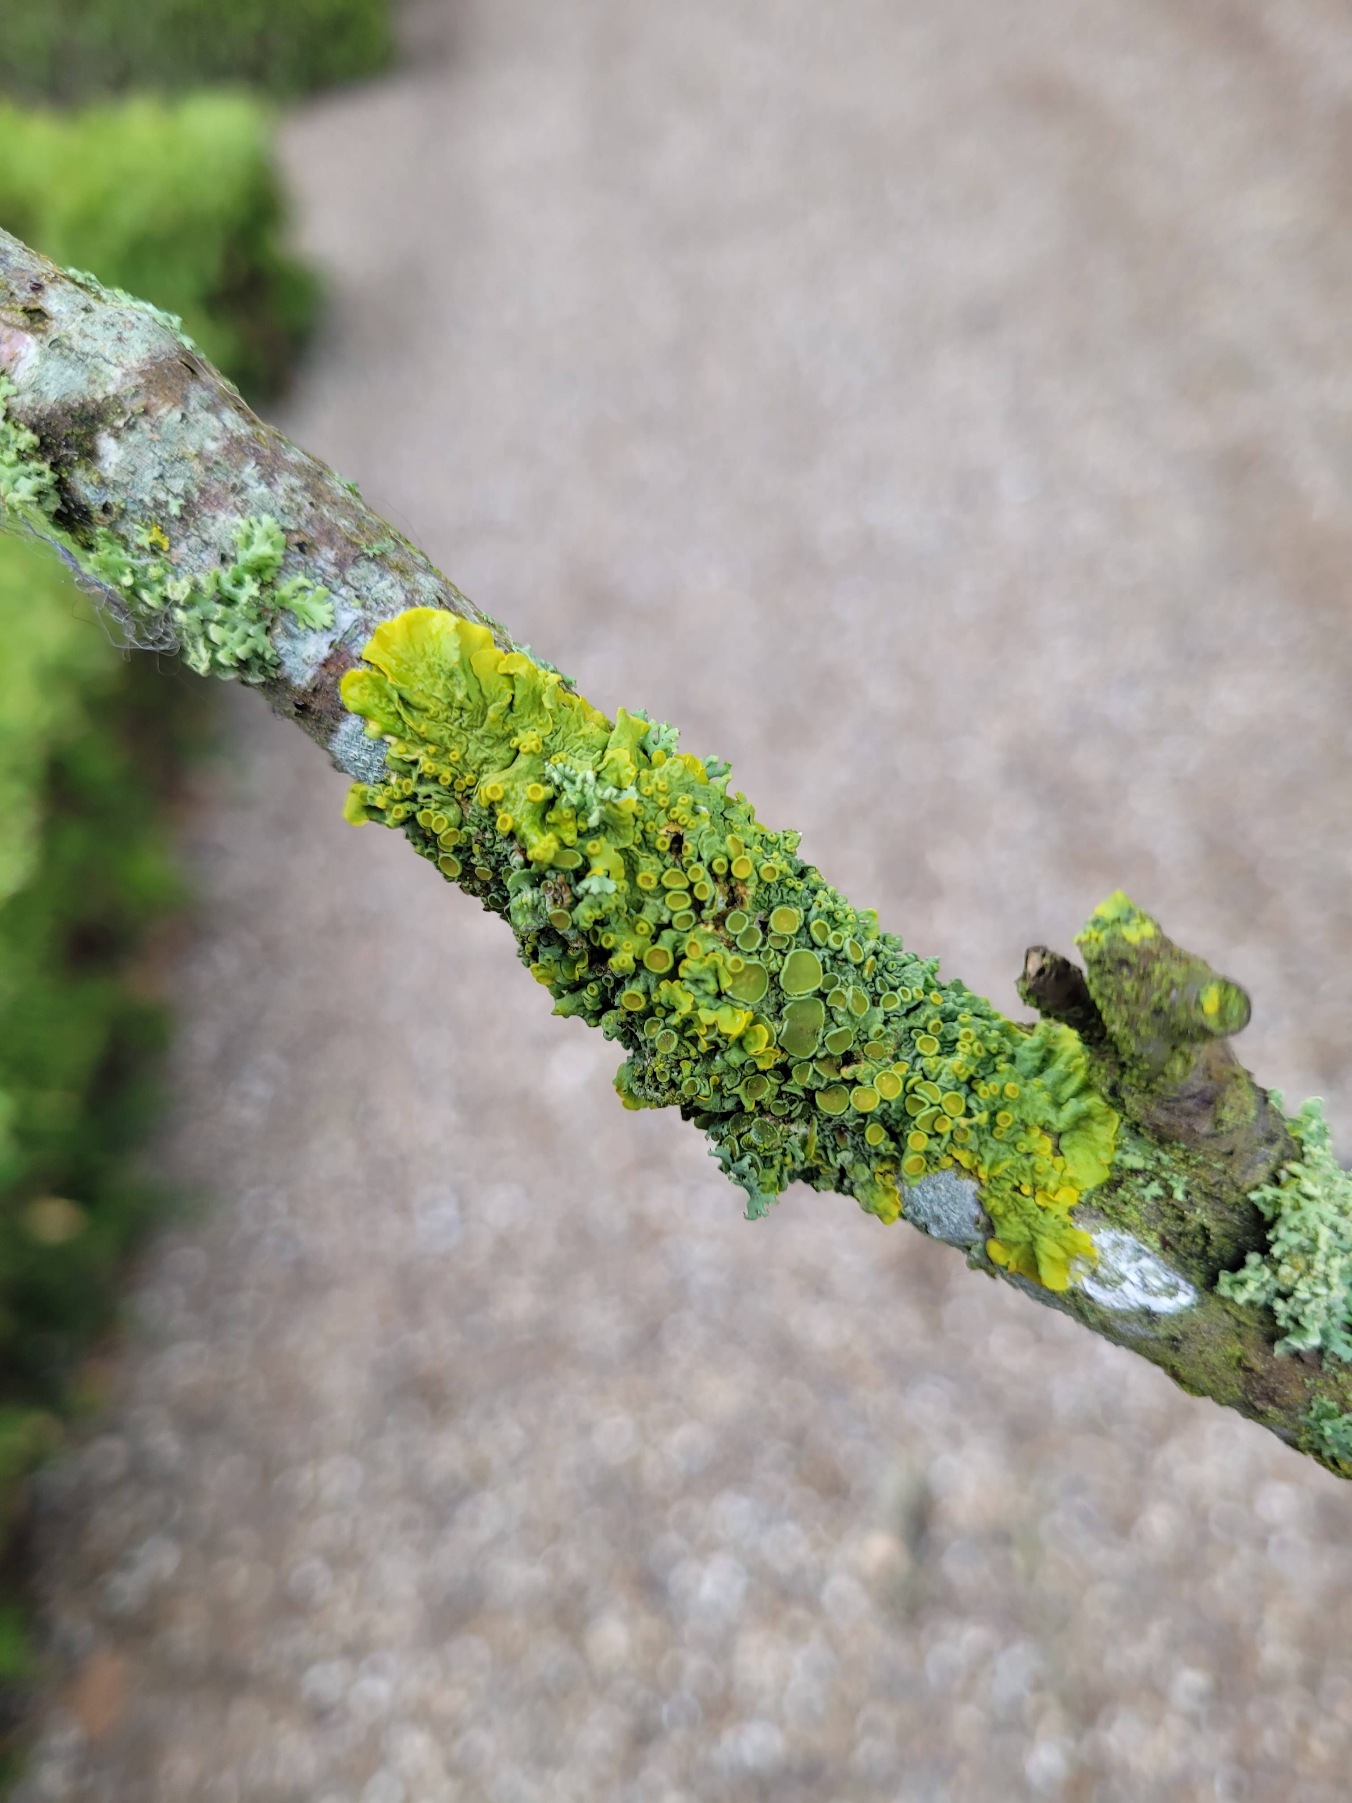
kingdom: Fungi
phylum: Ascomycota
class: Lecanoromycetes
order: Teloschistales
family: Teloschistaceae
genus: Xanthoria
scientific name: Xanthoria parietina
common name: Almindelig væggelav
